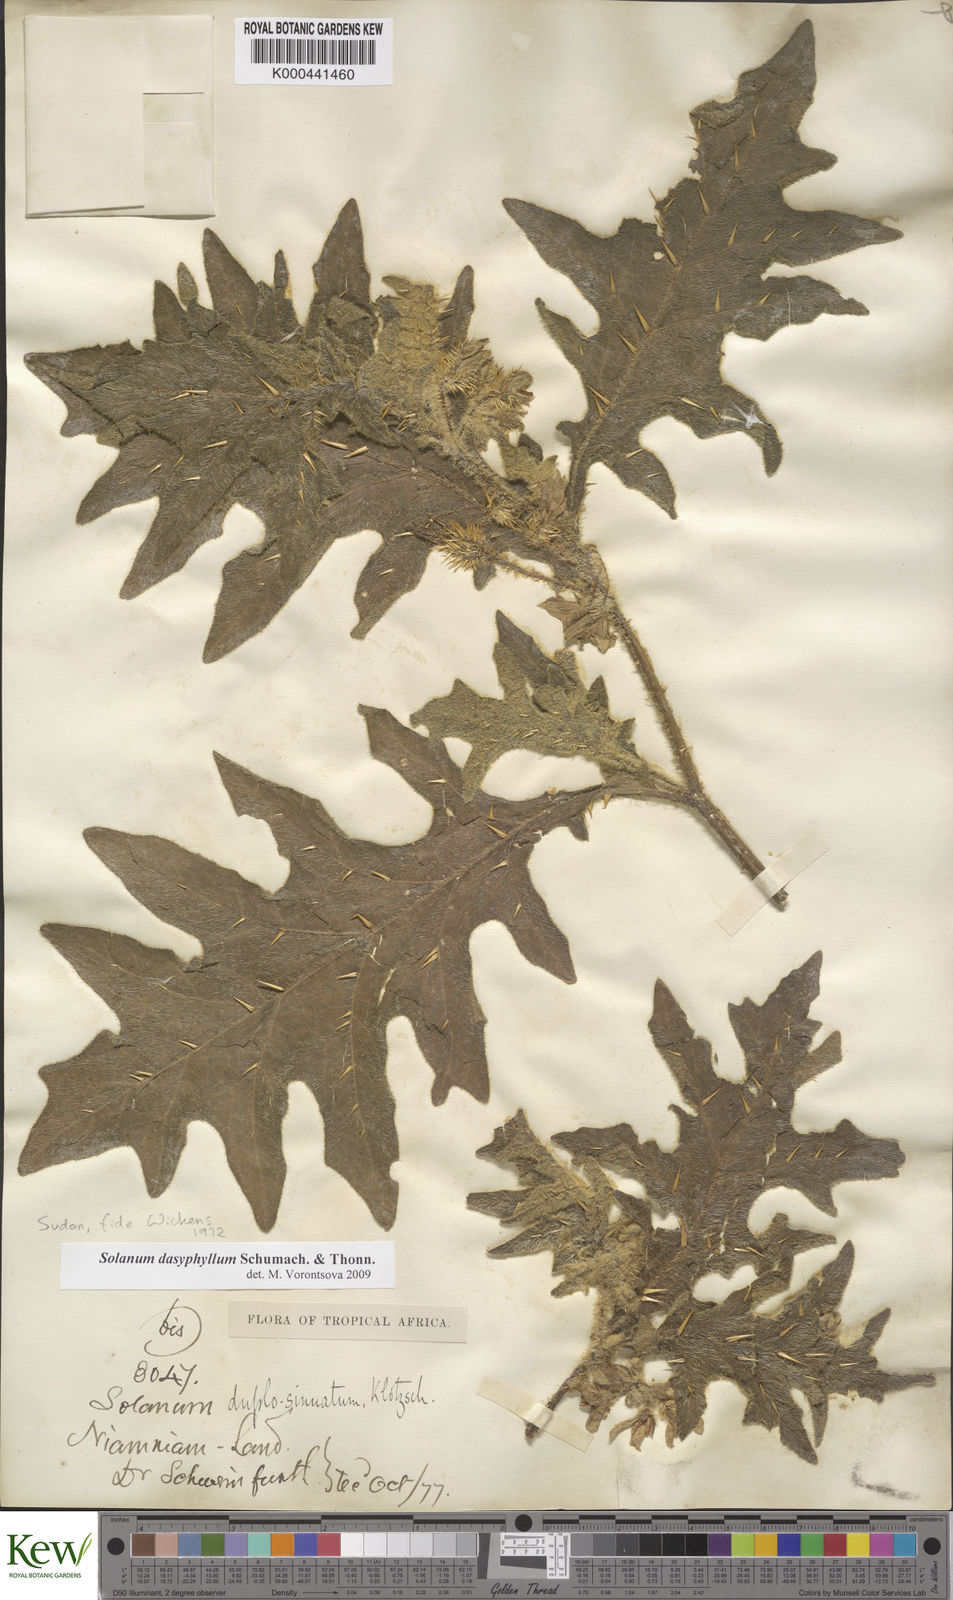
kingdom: Plantae
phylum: Tracheophyta
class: Magnoliopsida
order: Solanales
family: Solanaceae
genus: Solanum
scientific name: Solanum dasyphyllum
